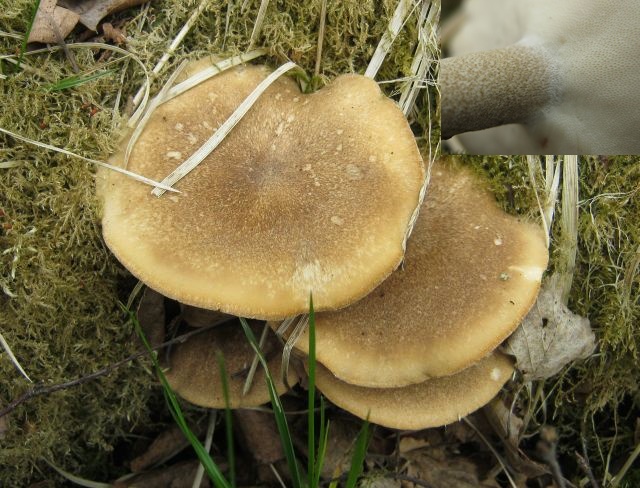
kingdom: Fungi
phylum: Basidiomycota
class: Agaricomycetes
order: Polyporales
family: Polyporaceae
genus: Lentinus
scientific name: Lentinus substrictus
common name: forårs-stilkporesvamp
